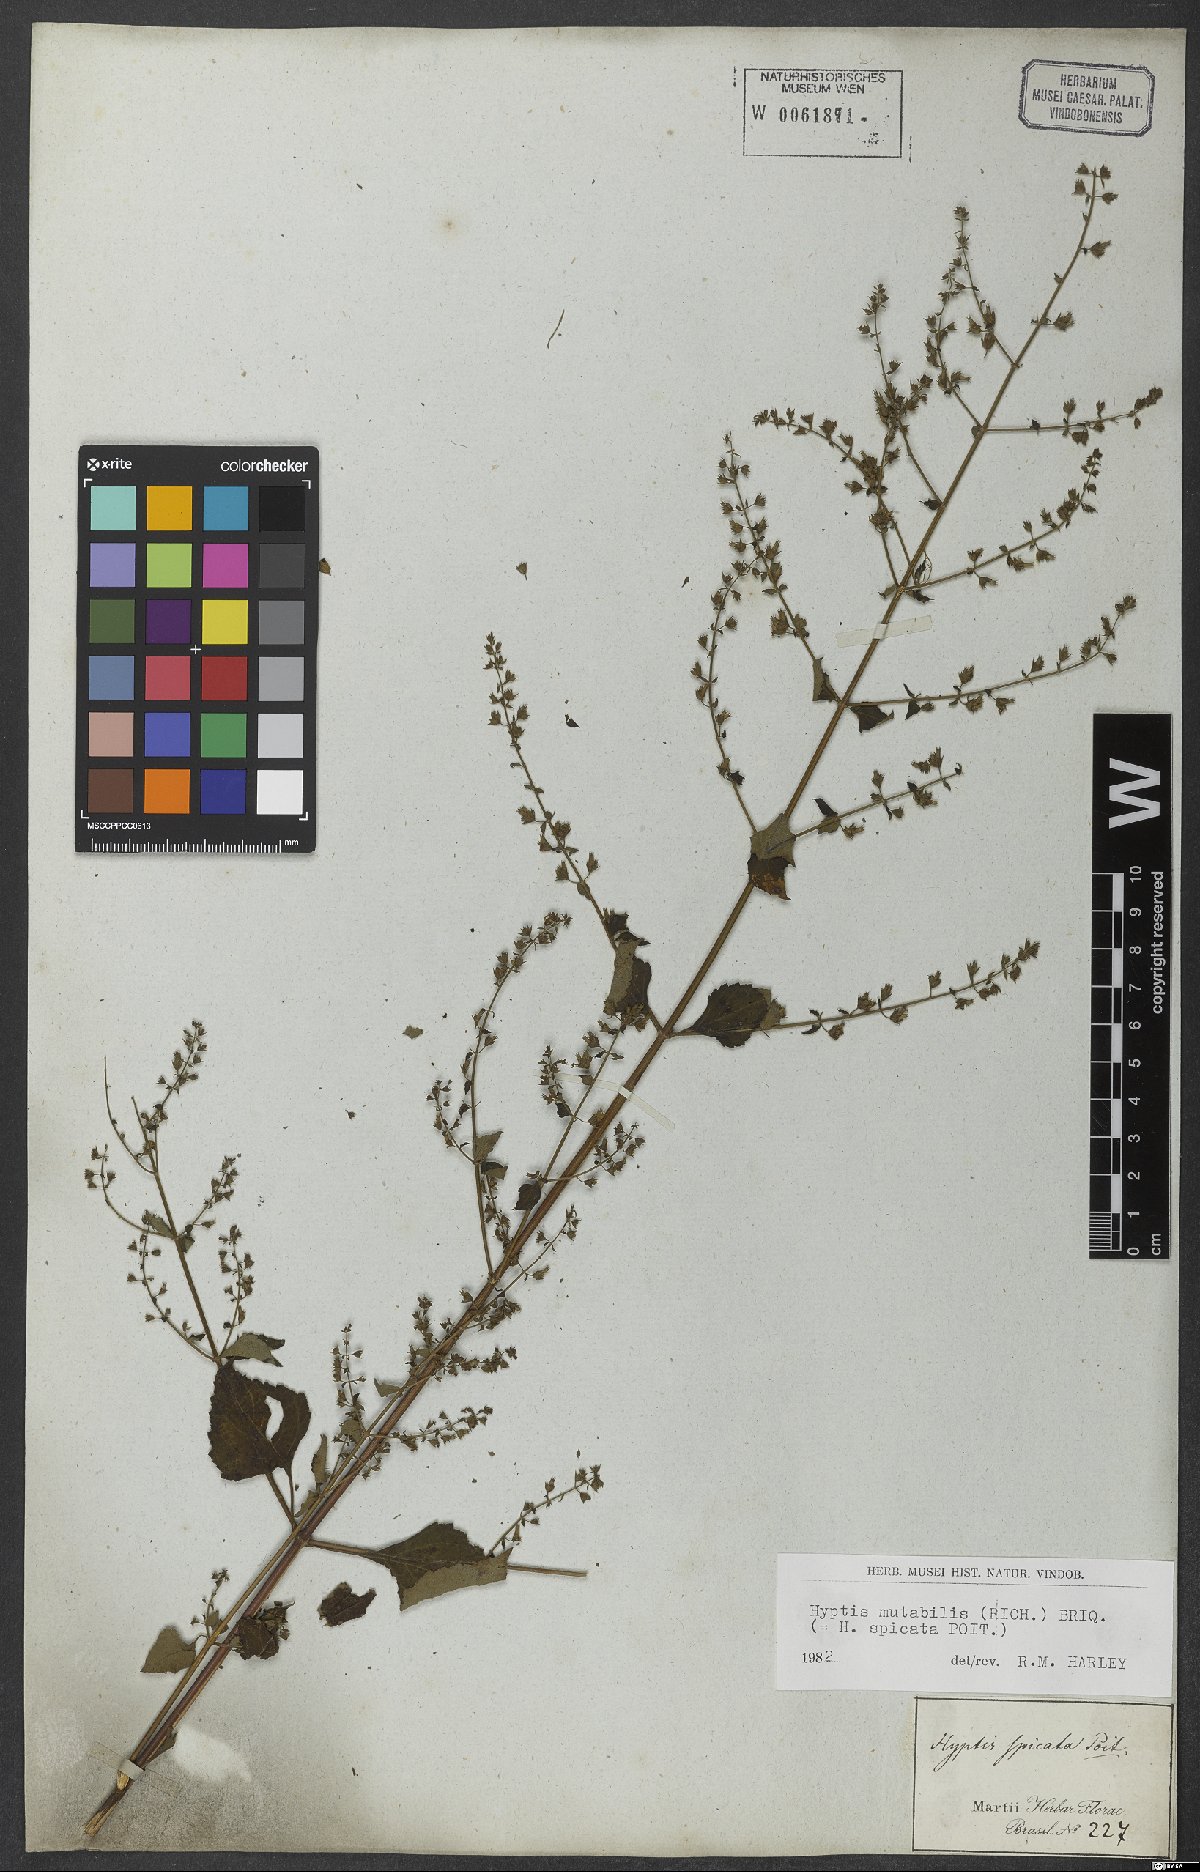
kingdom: Plantae
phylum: Tracheophyta
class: Magnoliopsida
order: Lamiales
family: Lamiaceae
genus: Cantinoa
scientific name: Cantinoa mutabilis
